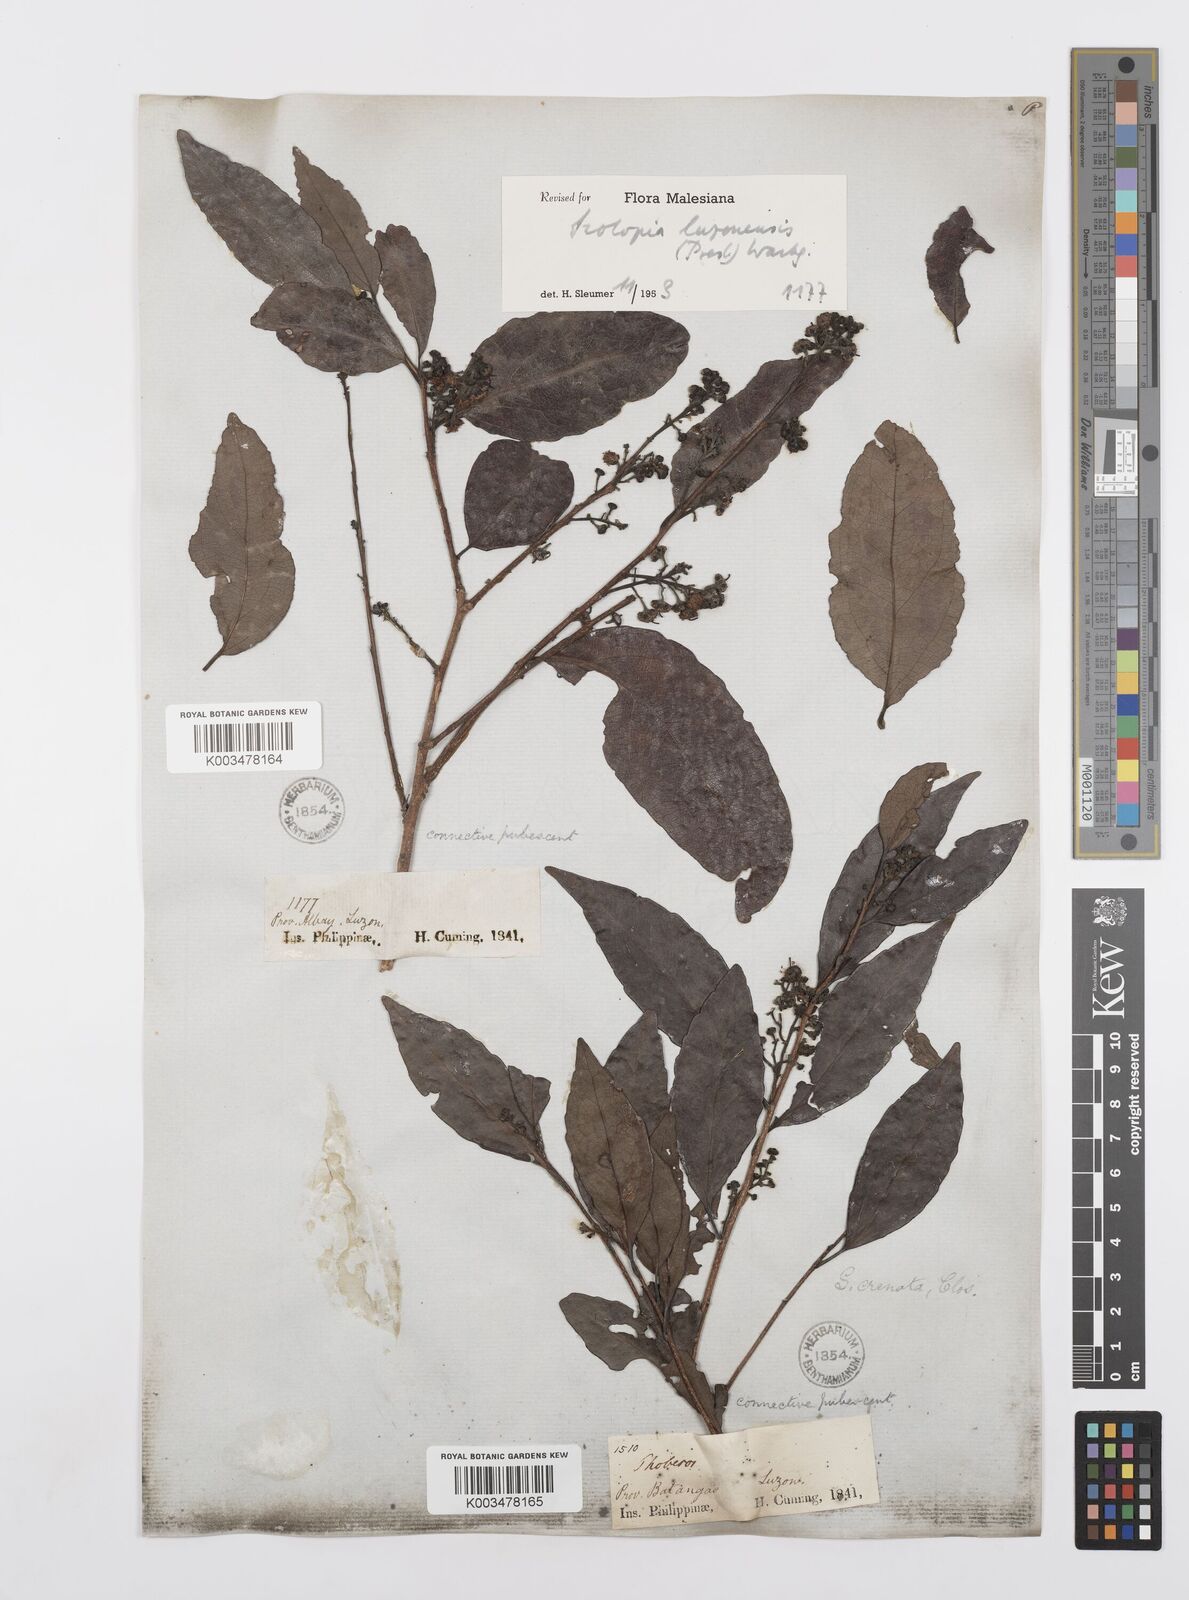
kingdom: Plantae
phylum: Tracheophyta
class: Magnoliopsida
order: Malpighiales
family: Salicaceae
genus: Scolopia
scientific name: Scolopia luzonensis
